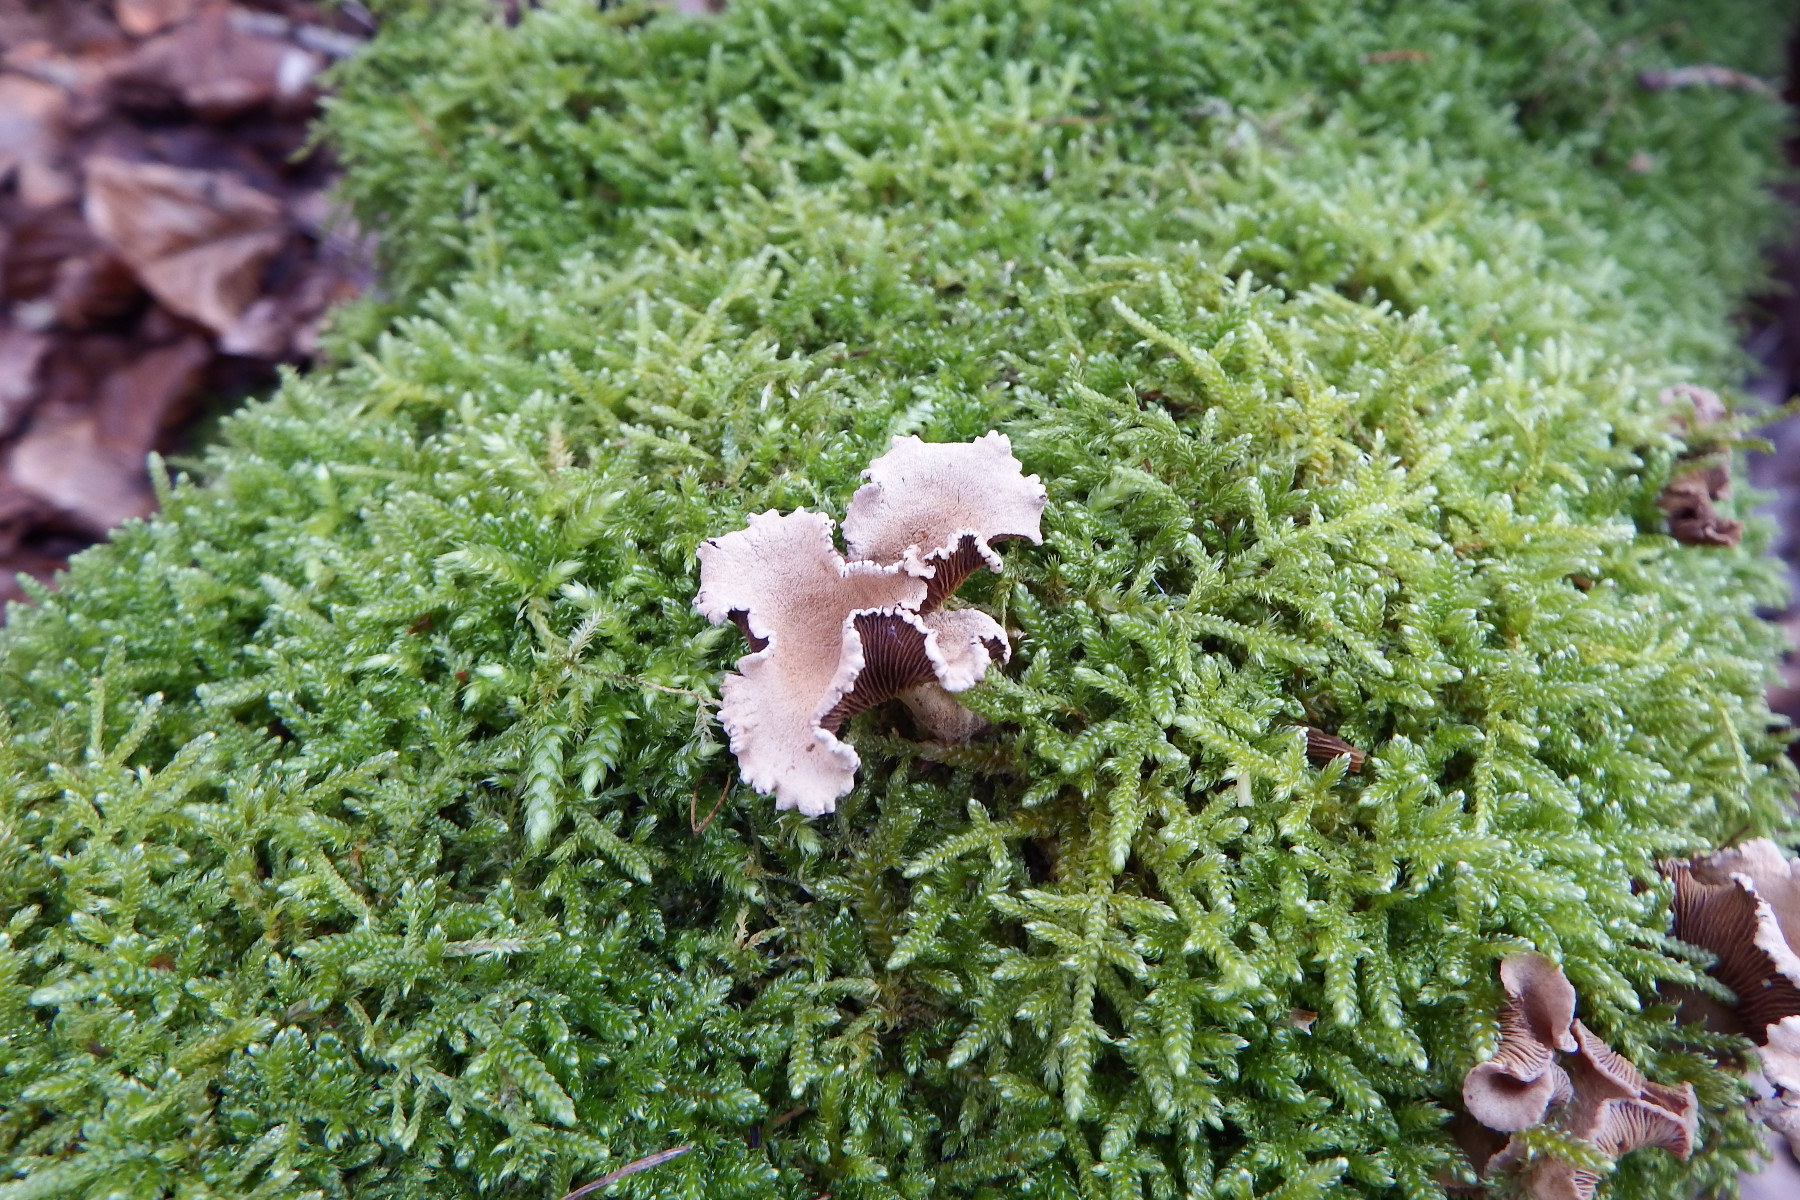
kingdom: Fungi
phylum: Basidiomycota
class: Agaricomycetes
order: Agaricales
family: Mycenaceae
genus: Panellus
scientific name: Panellus stipticus
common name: kliddet epaulethat
